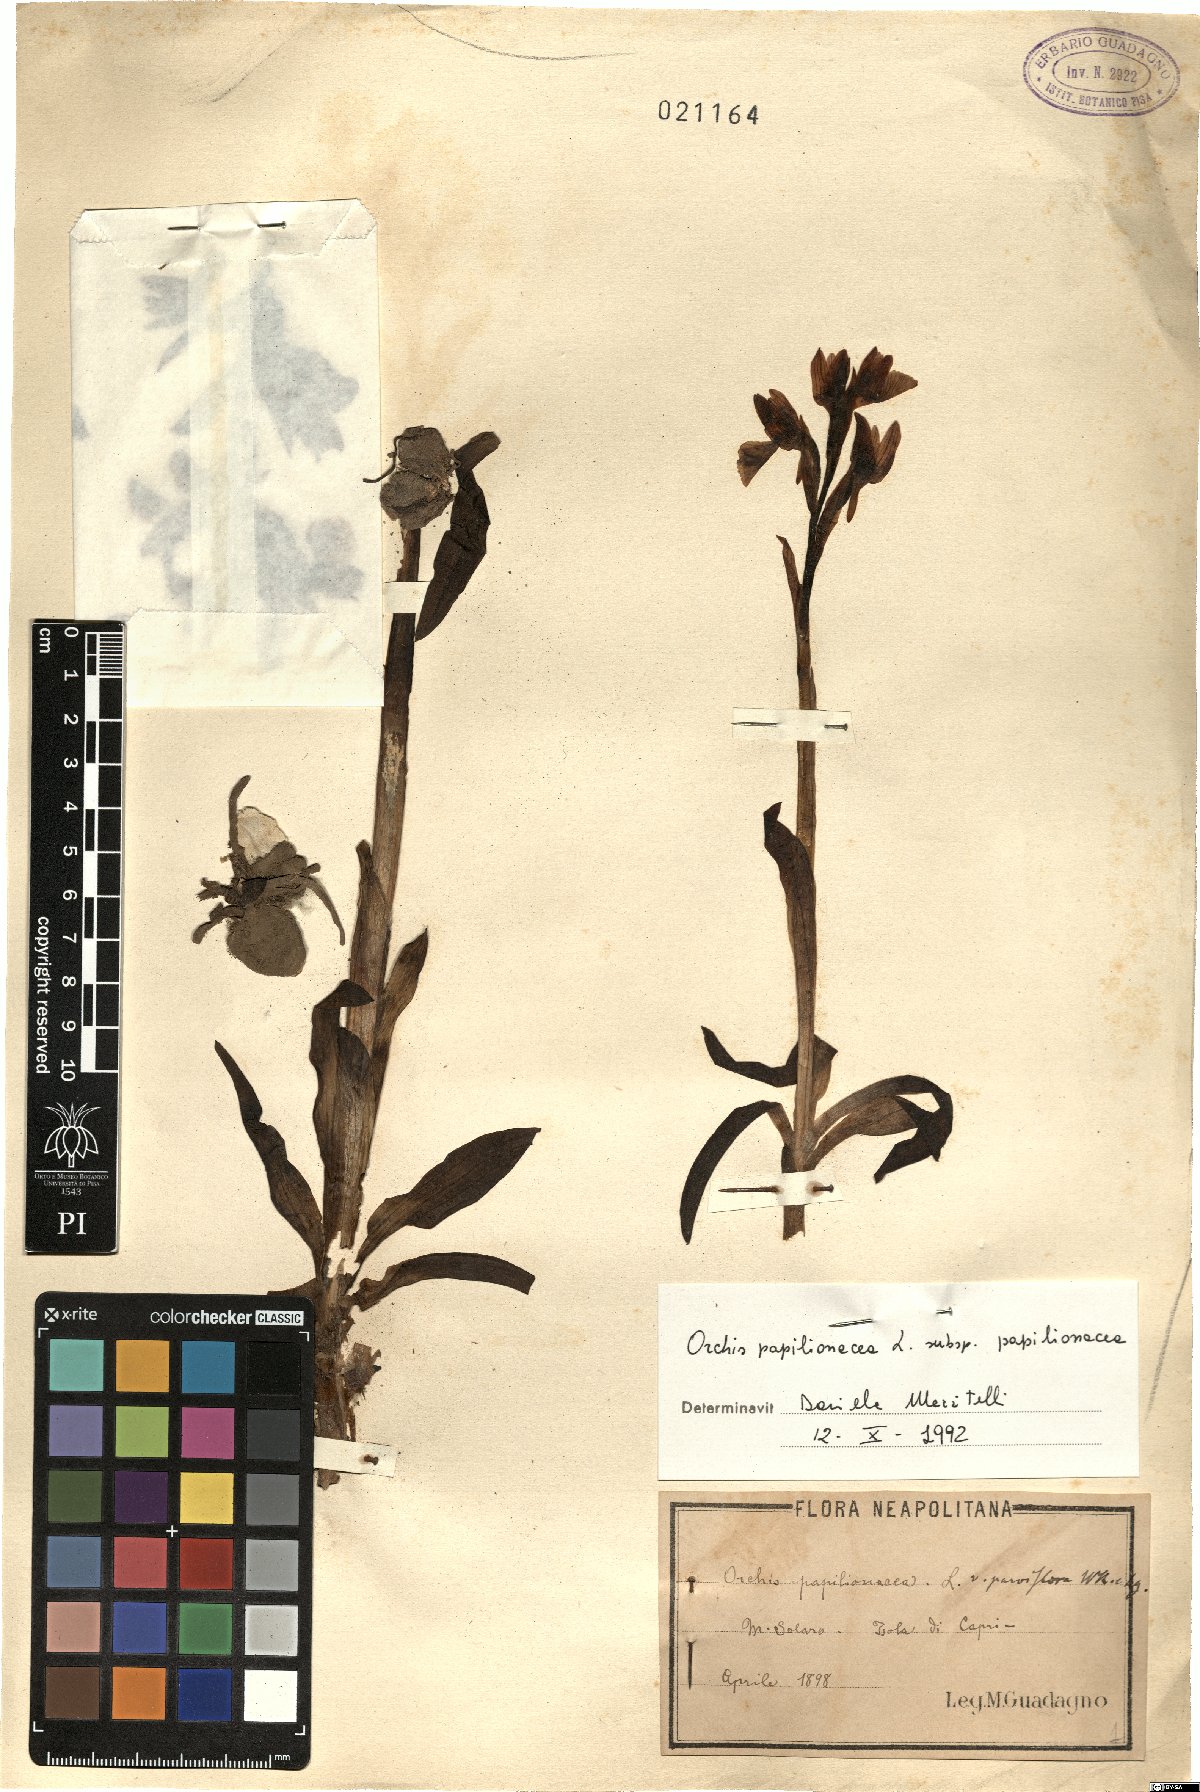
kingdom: Plantae
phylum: Tracheophyta
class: Liliopsida
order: Asparagales
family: Orchidaceae
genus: Anacamptis
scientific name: Anacamptis papilionacea
